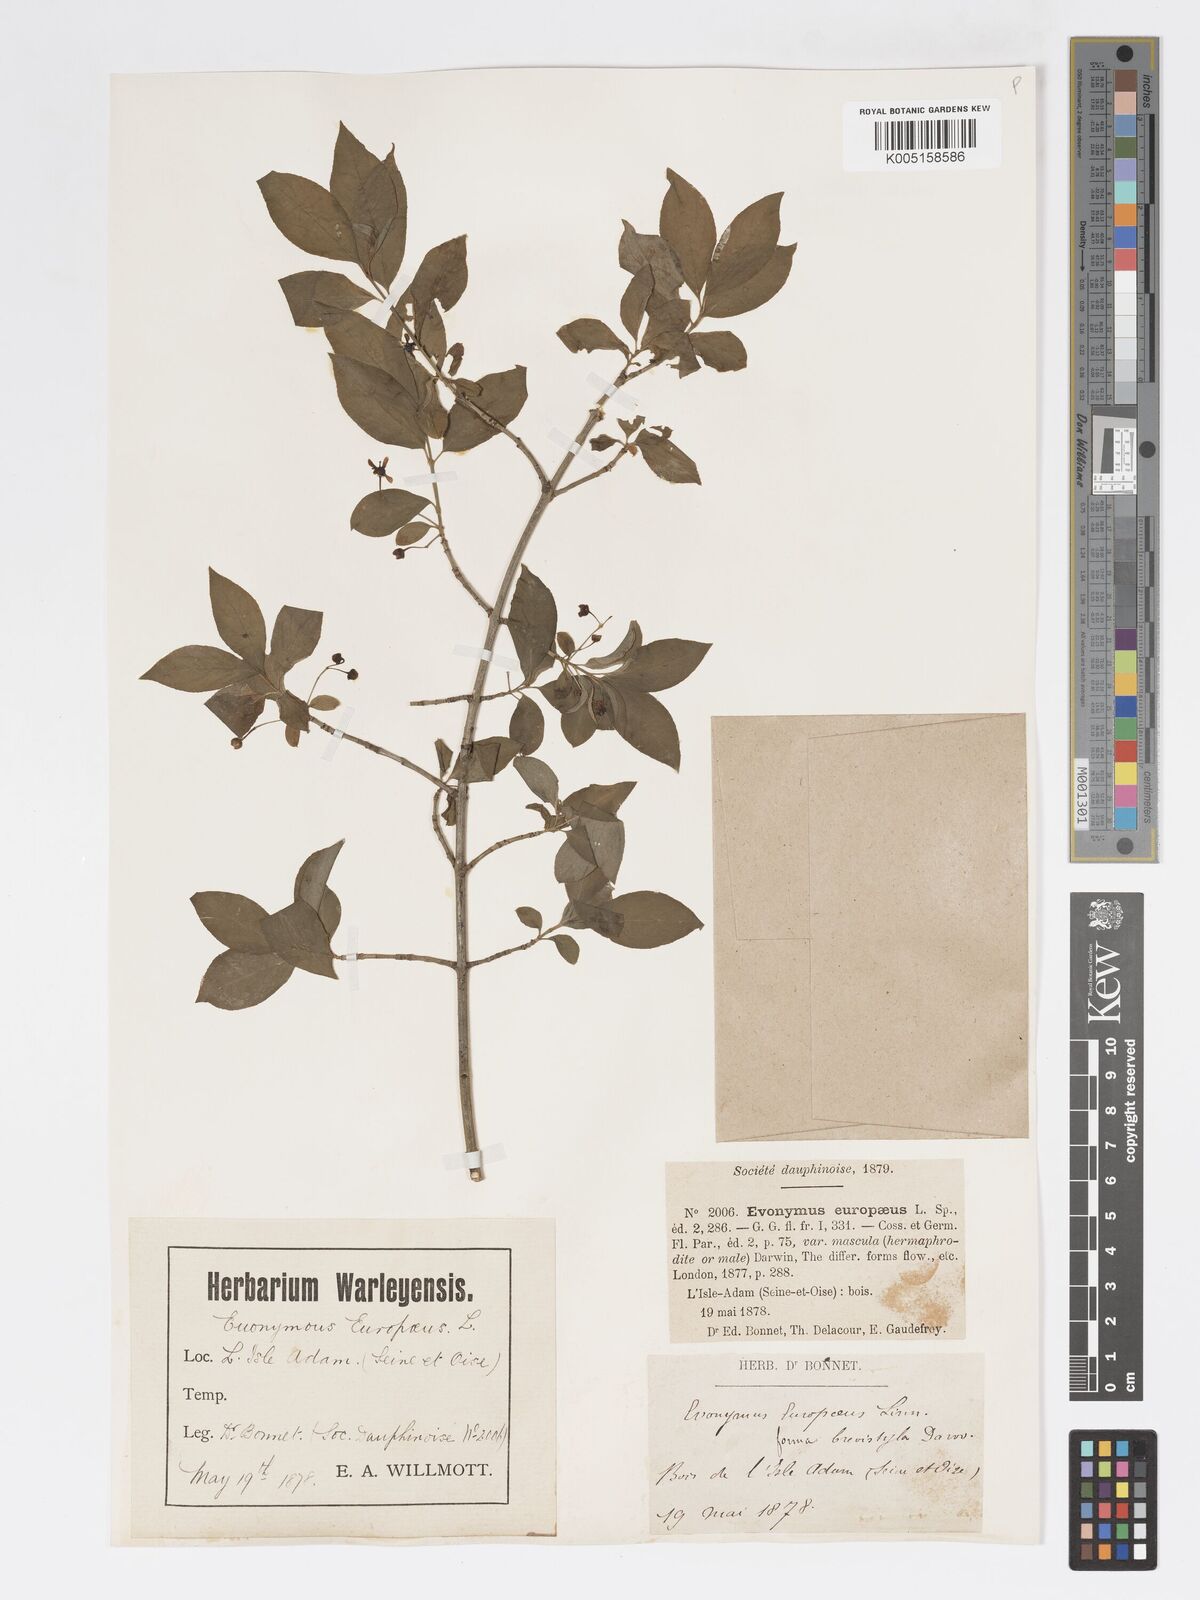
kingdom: Plantae
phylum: Tracheophyta
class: Magnoliopsida
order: Celastrales
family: Celastraceae
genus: Euonymus
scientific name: Euonymus europaeus
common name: Spindle
